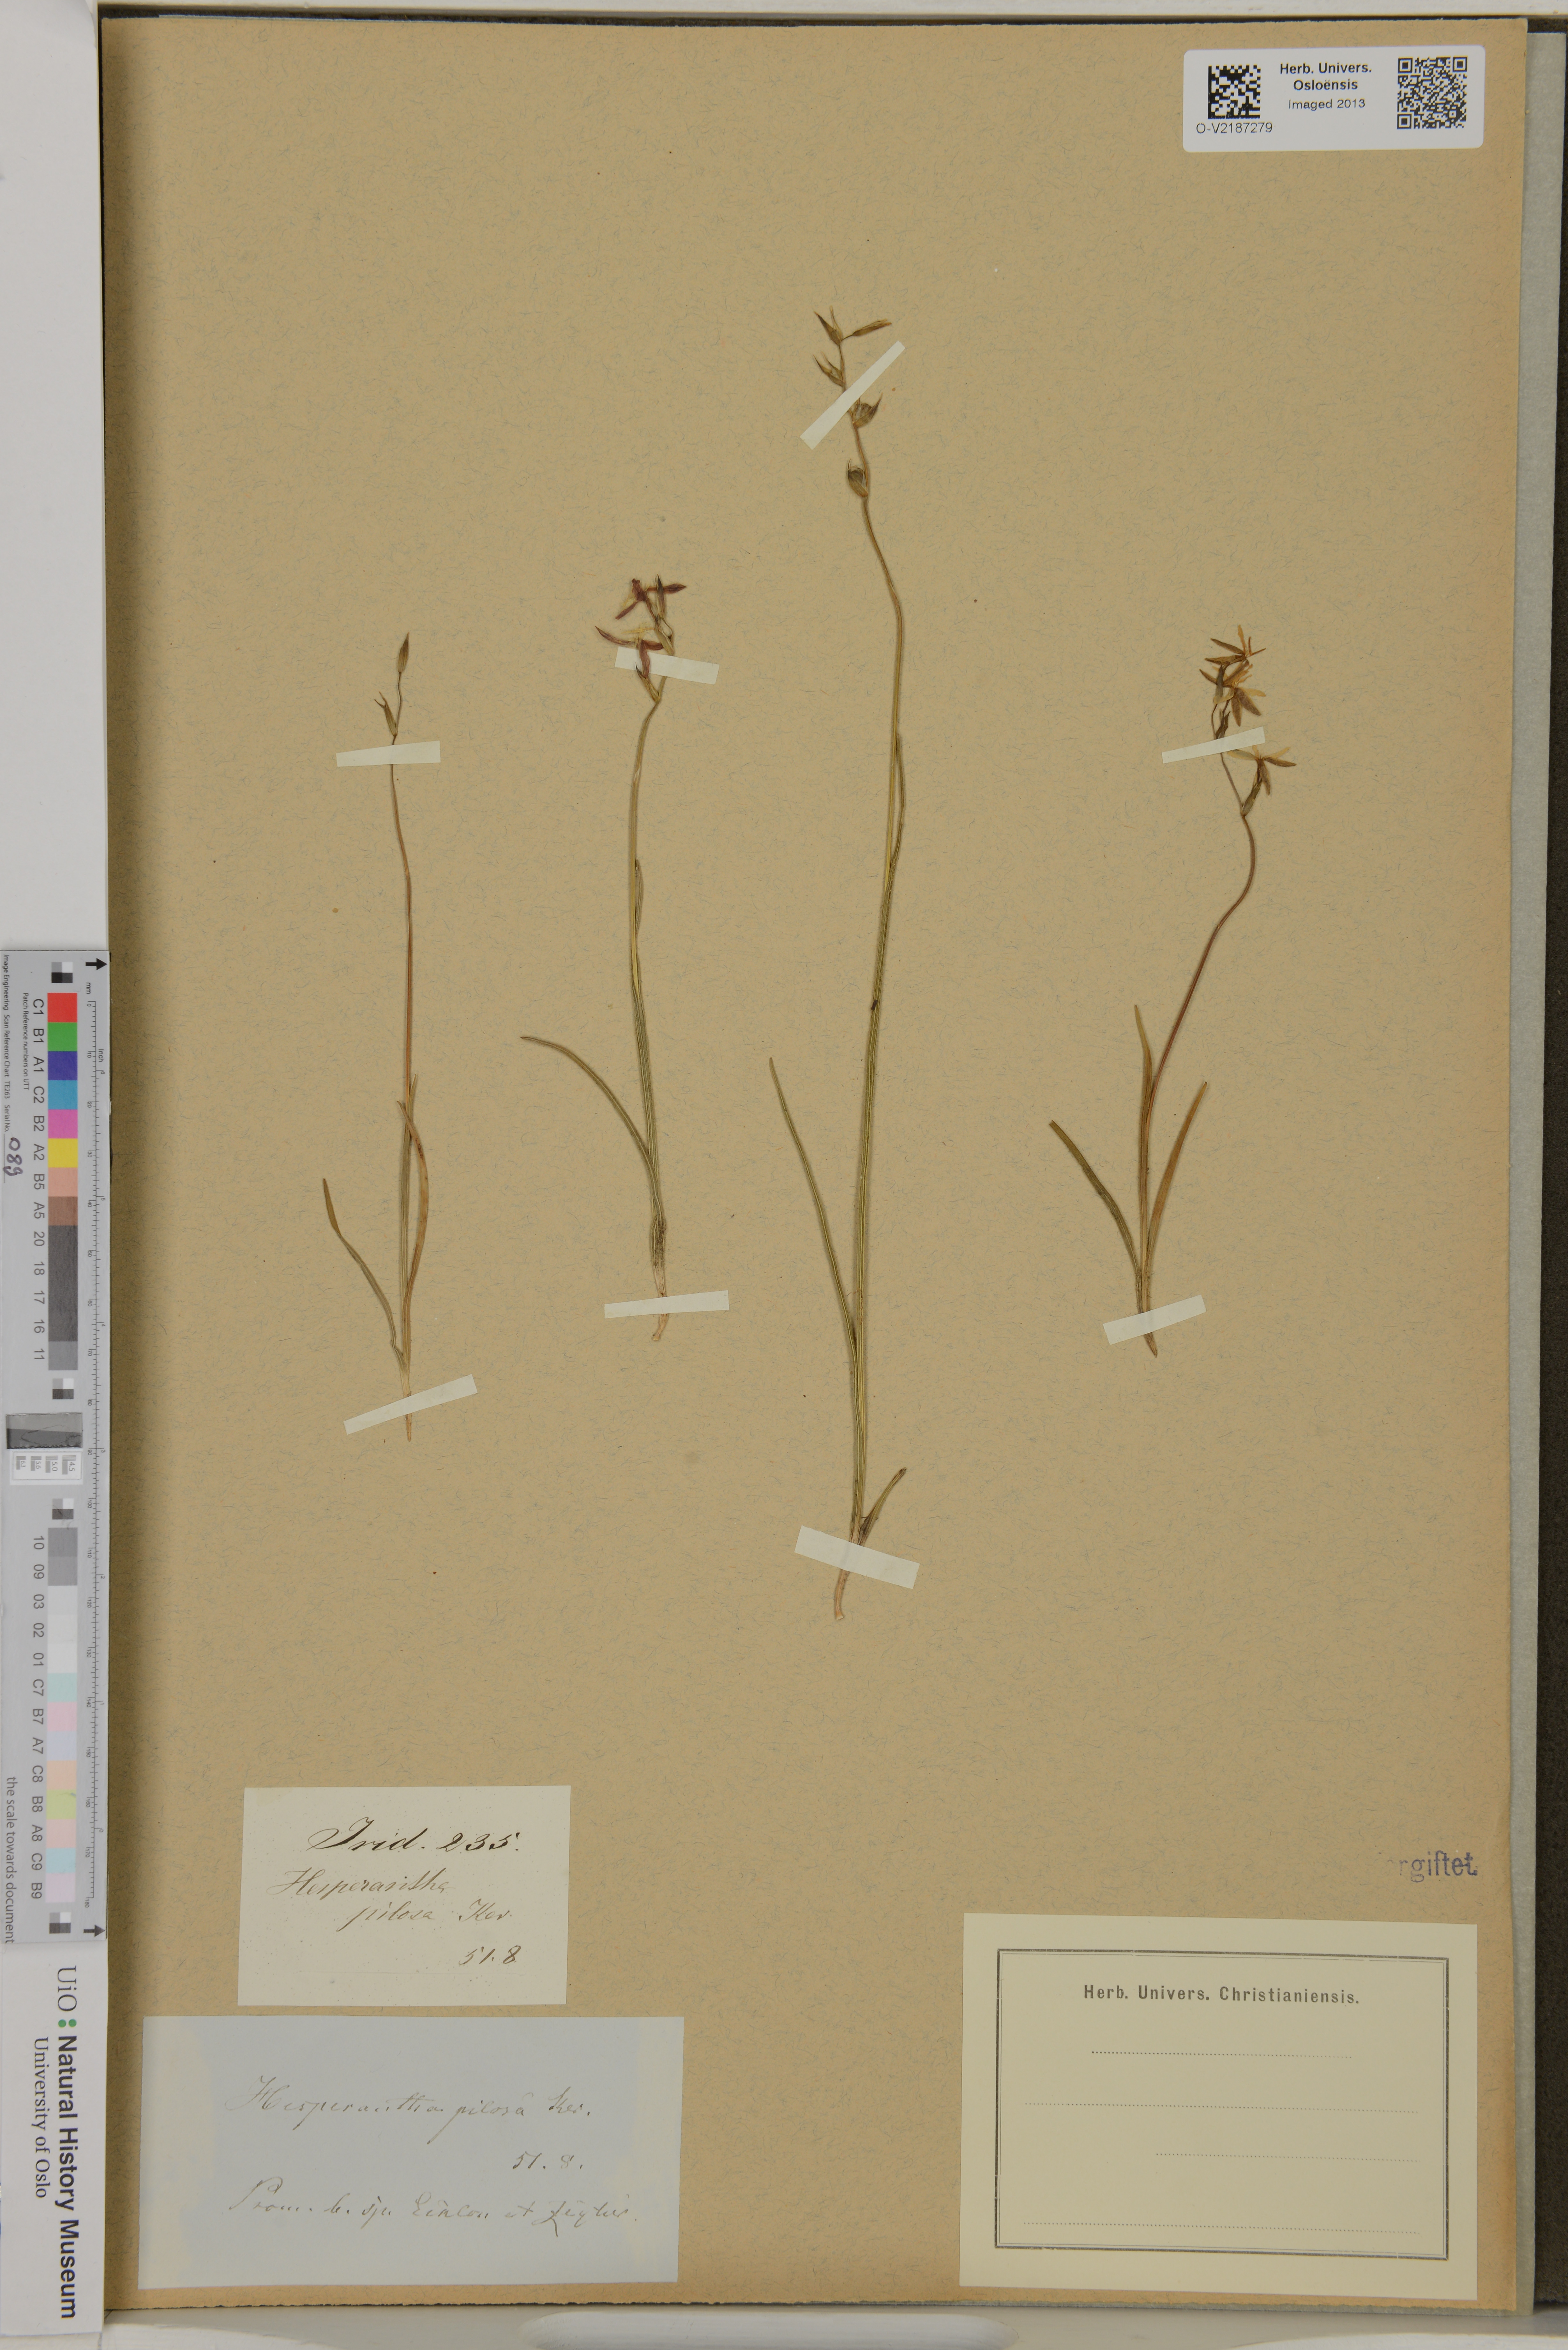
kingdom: Plantae
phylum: Tracheophyta
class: Liliopsida
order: Asparagales
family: Iridaceae
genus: Hesperantha
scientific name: Hesperantha pilosa
